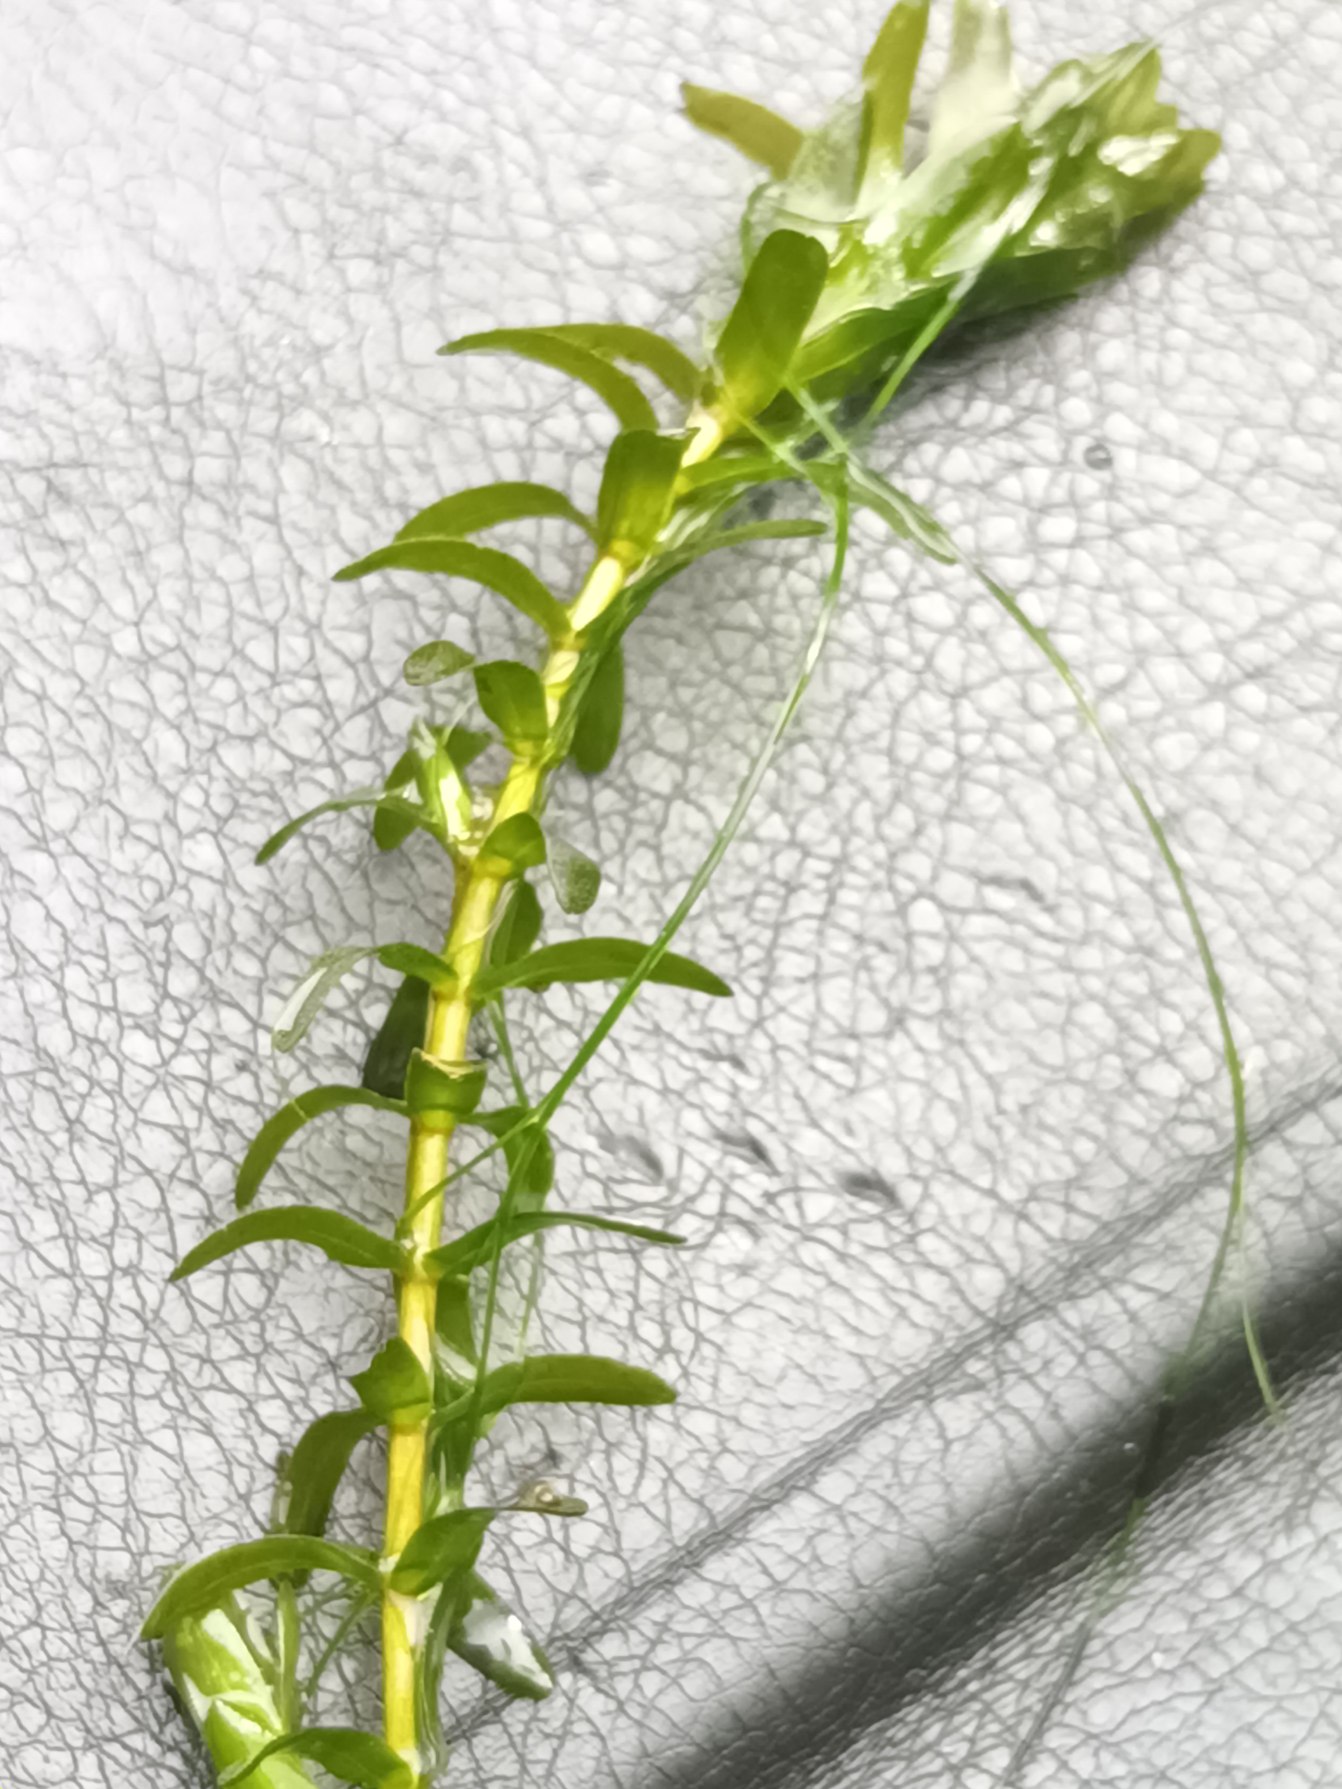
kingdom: Plantae
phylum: Tracheophyta
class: Liliopsida
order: Alismatales
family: Hydrocharitaceae
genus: Elodea
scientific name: Elodea canadensis
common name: Vandpest
